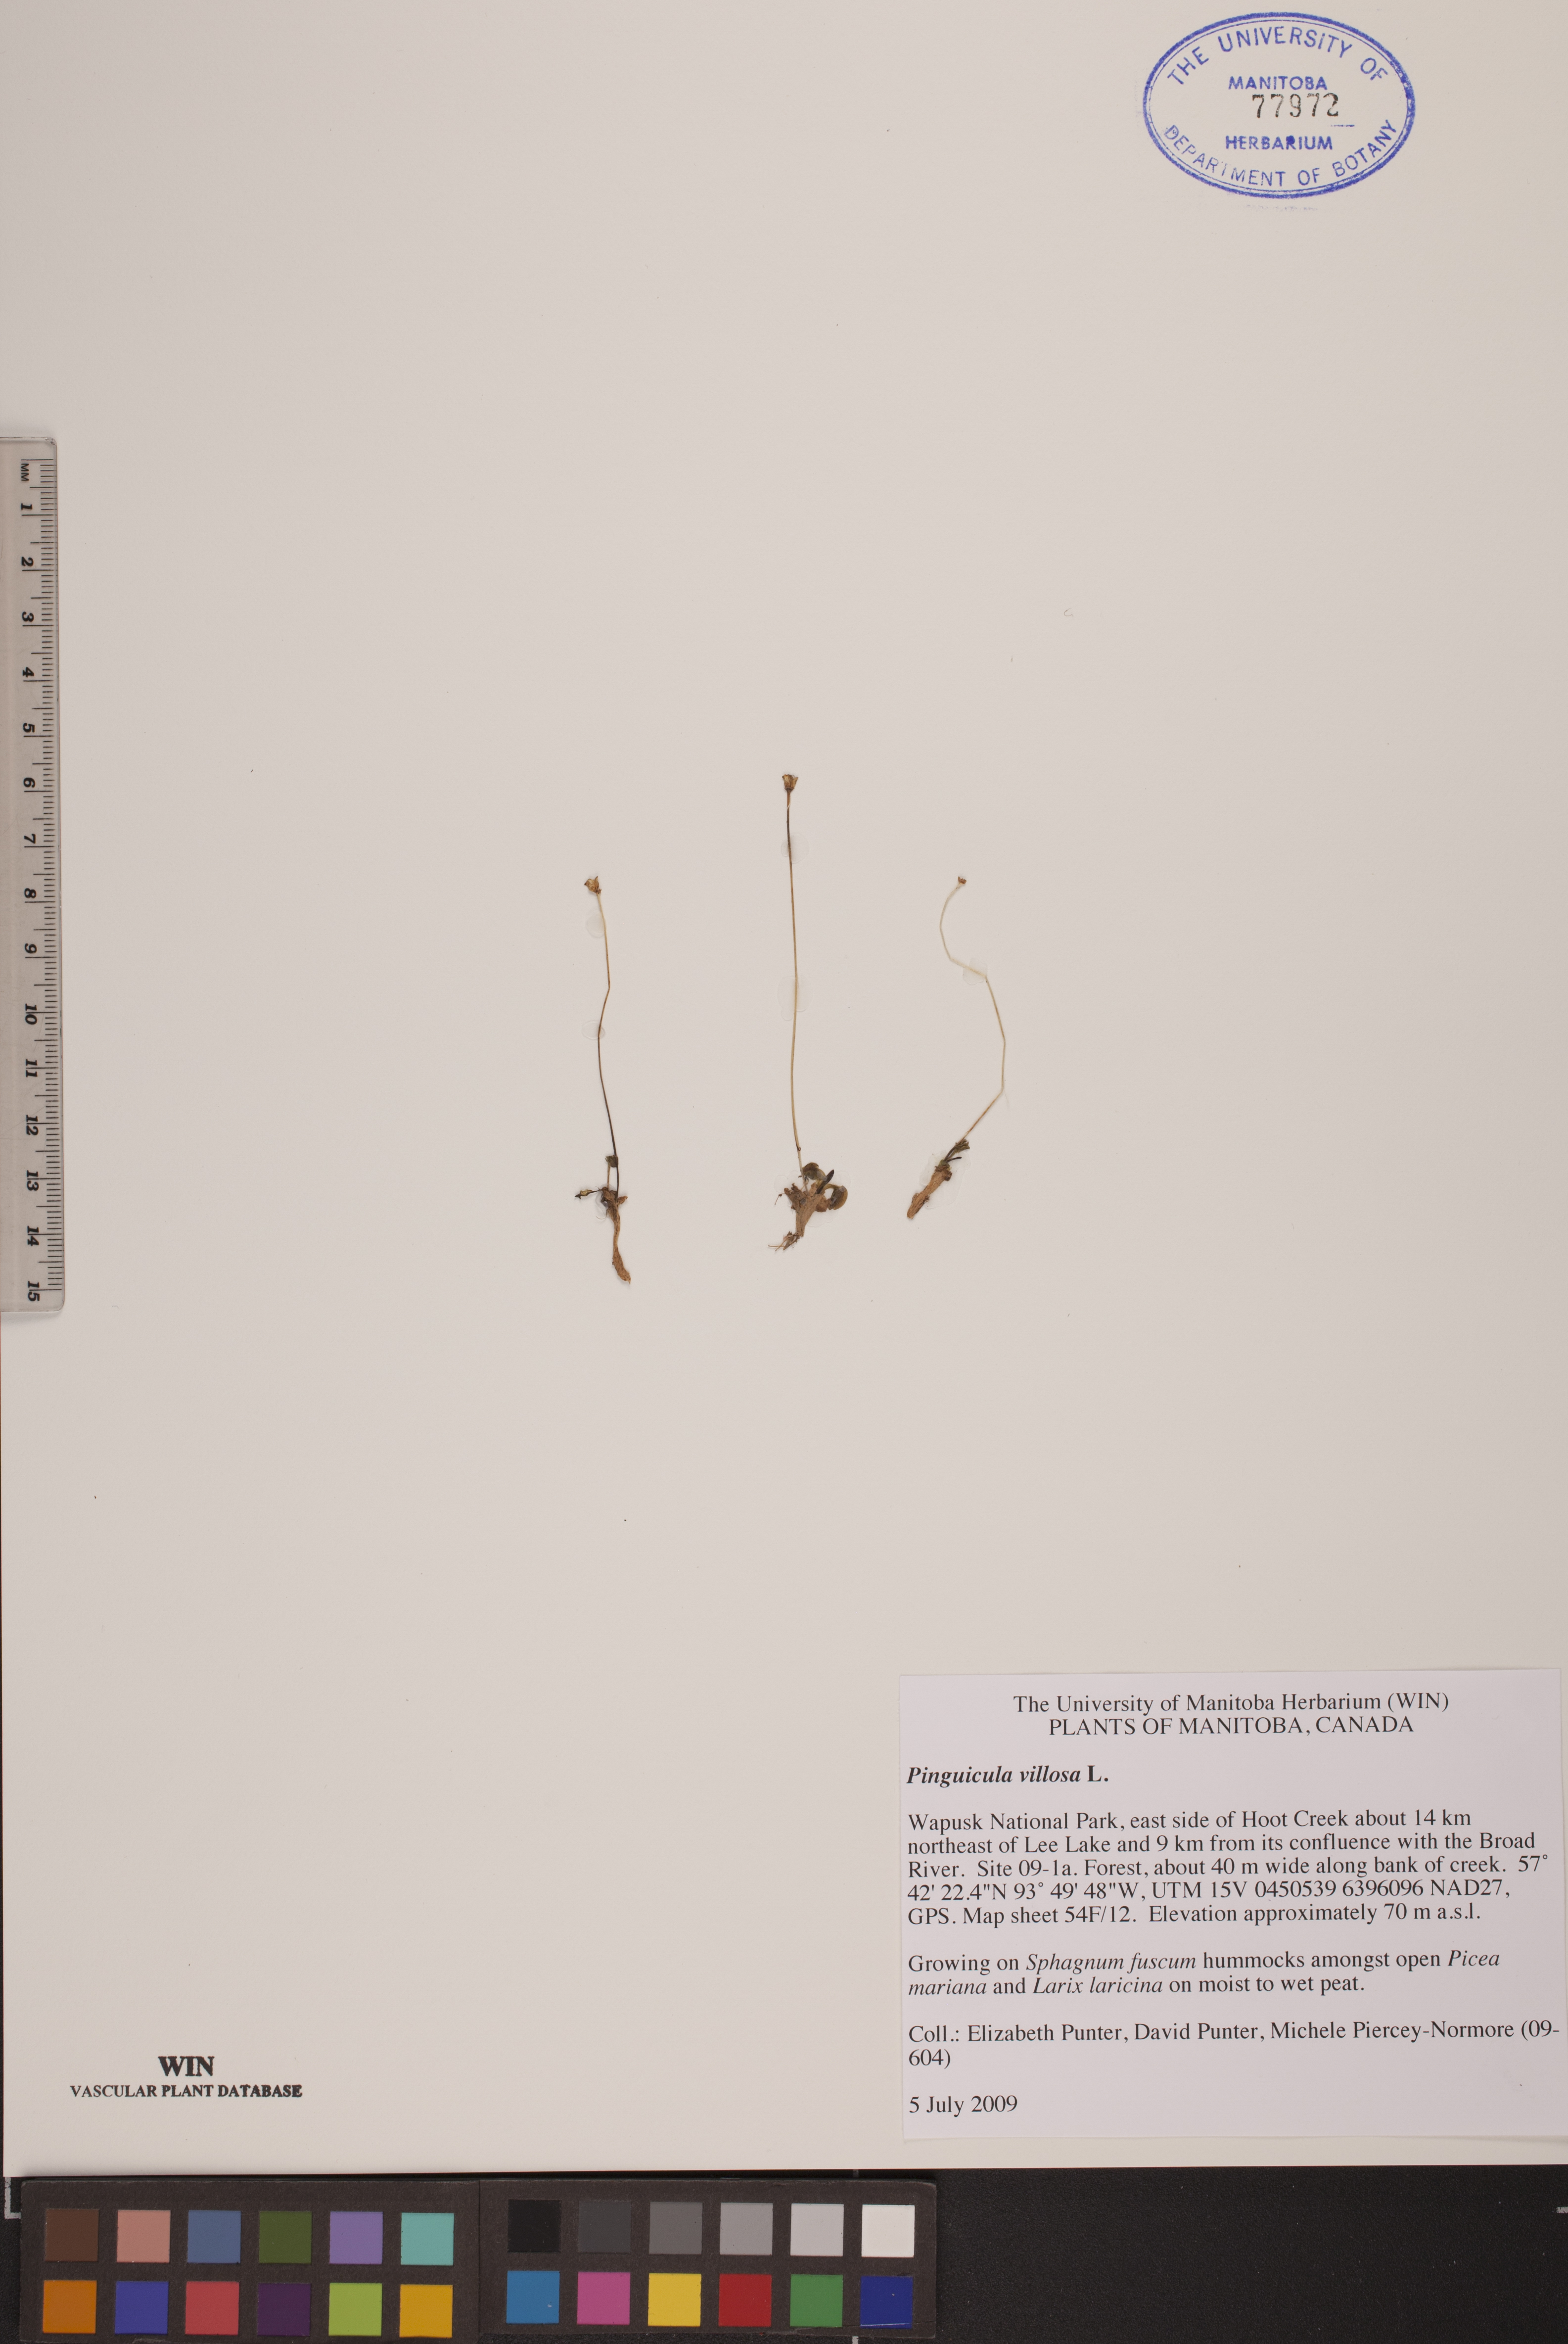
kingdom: Plantae
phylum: Tracheophyta
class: Magnoliopsida
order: Lamiales
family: Lentibulariaceae
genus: Pinguicula
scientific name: Pinguicula villosa
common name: Hairy butterwort
